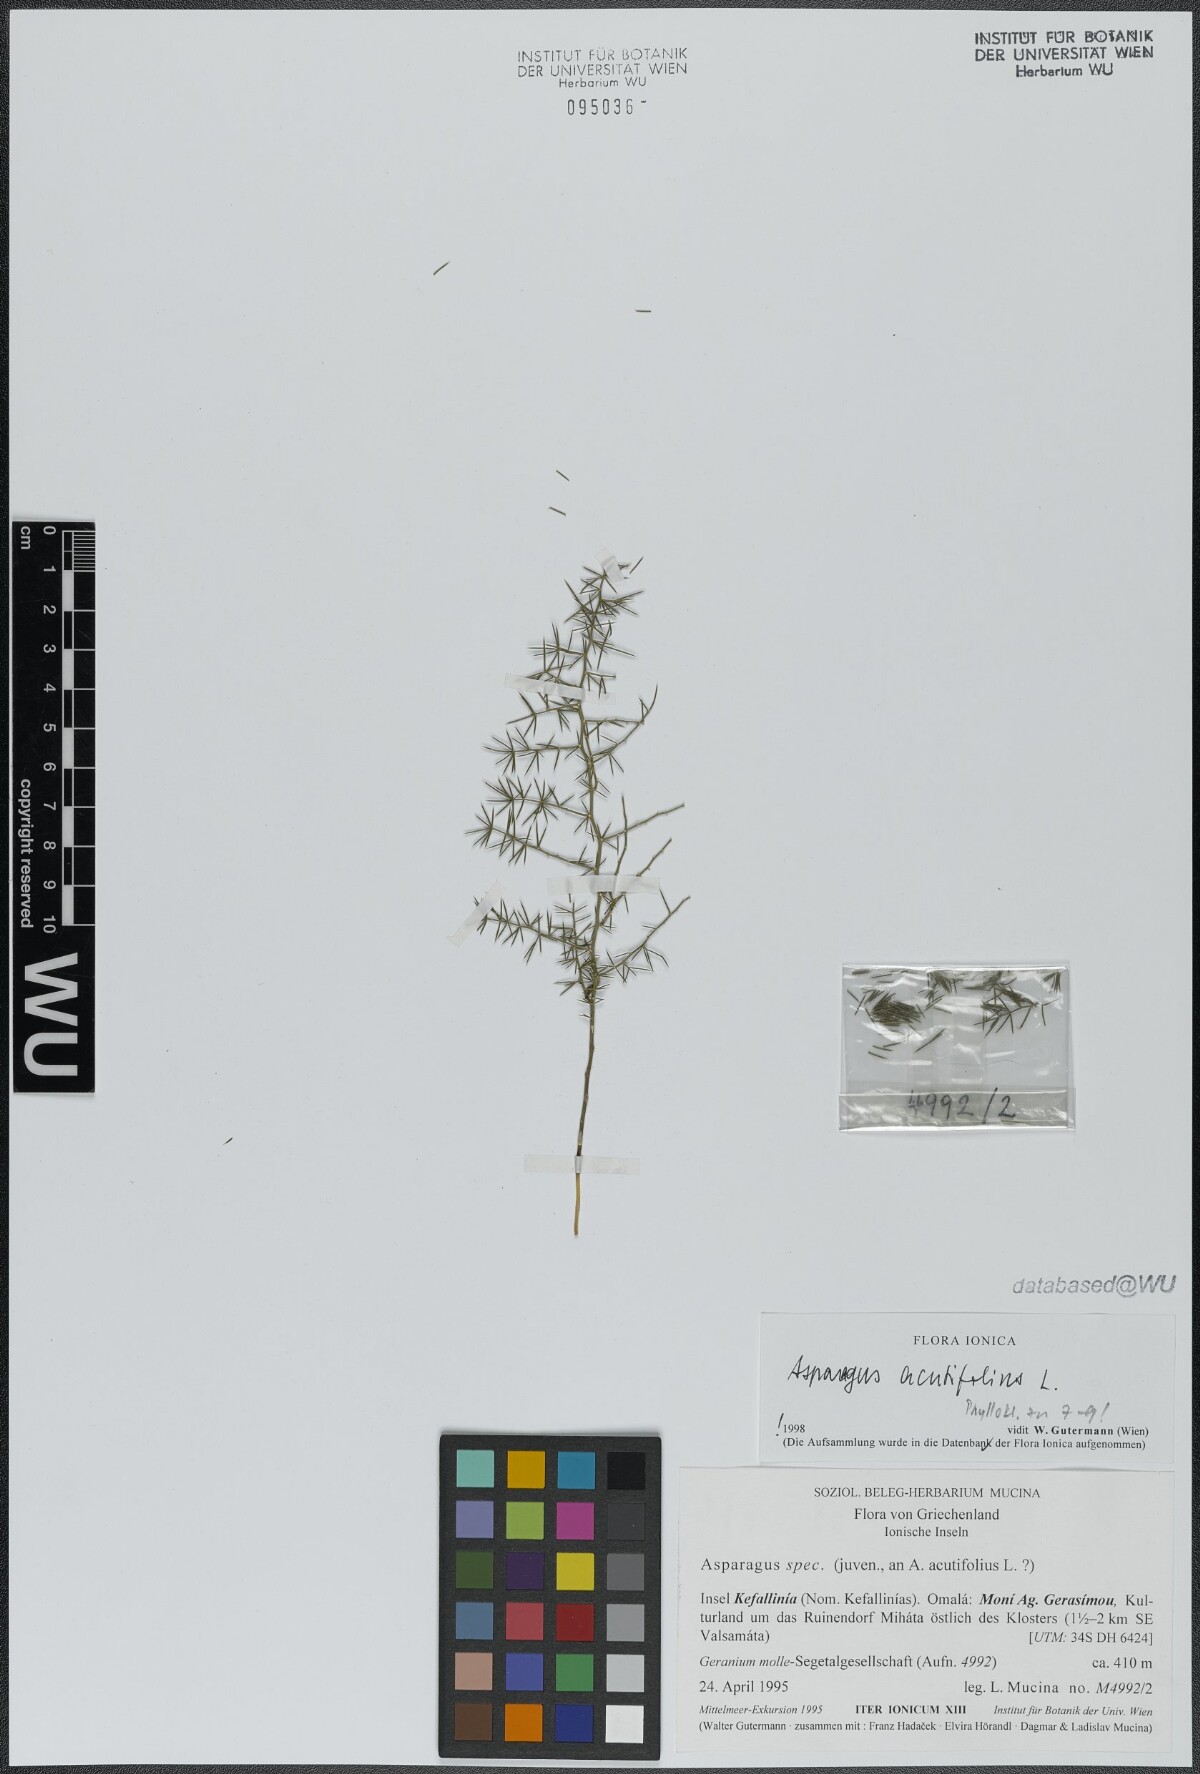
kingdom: Plantae
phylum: Tracheophyta
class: Liliopsida
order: Asparagales
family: Asparagaceae
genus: Asparagus
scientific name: Asparagus acutifolius
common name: Wild asparagus
